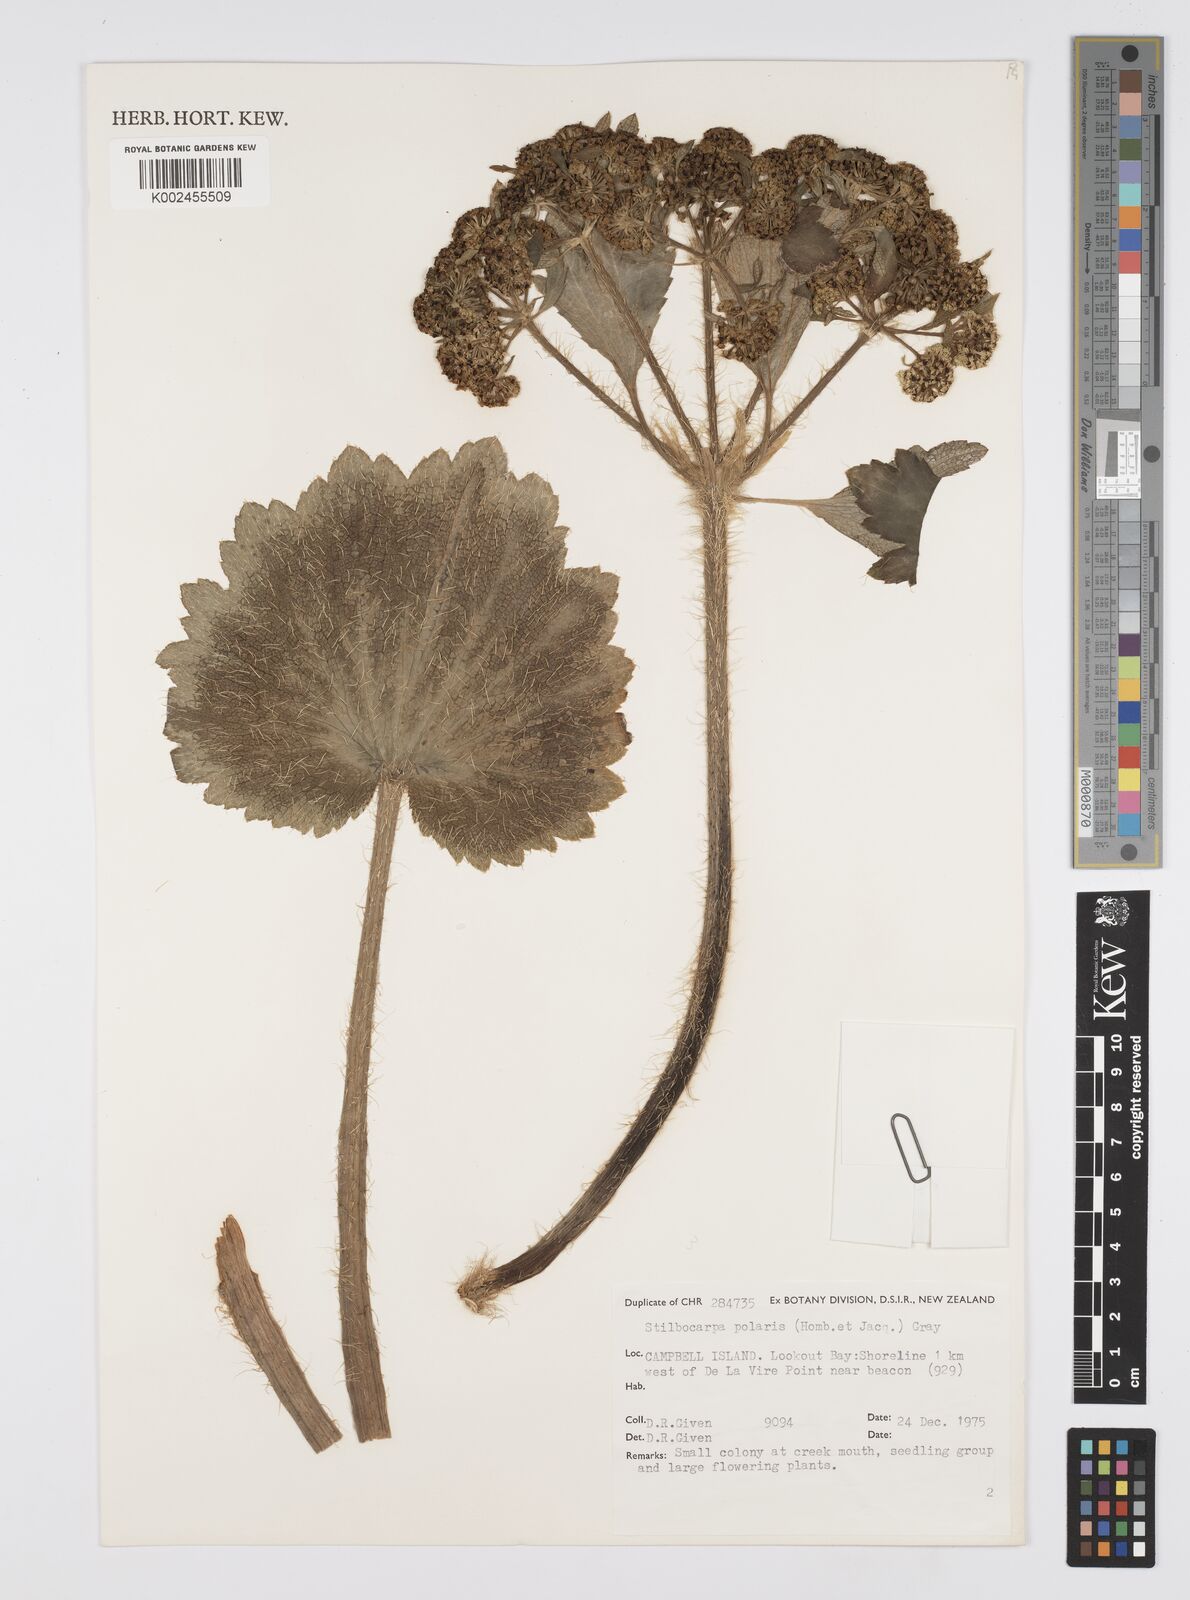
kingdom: Plantae
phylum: Tracheophyta
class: Magnoliopsida
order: Apiales
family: Araliaceae
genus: Stilbocarpa
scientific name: Stilbocarpa
